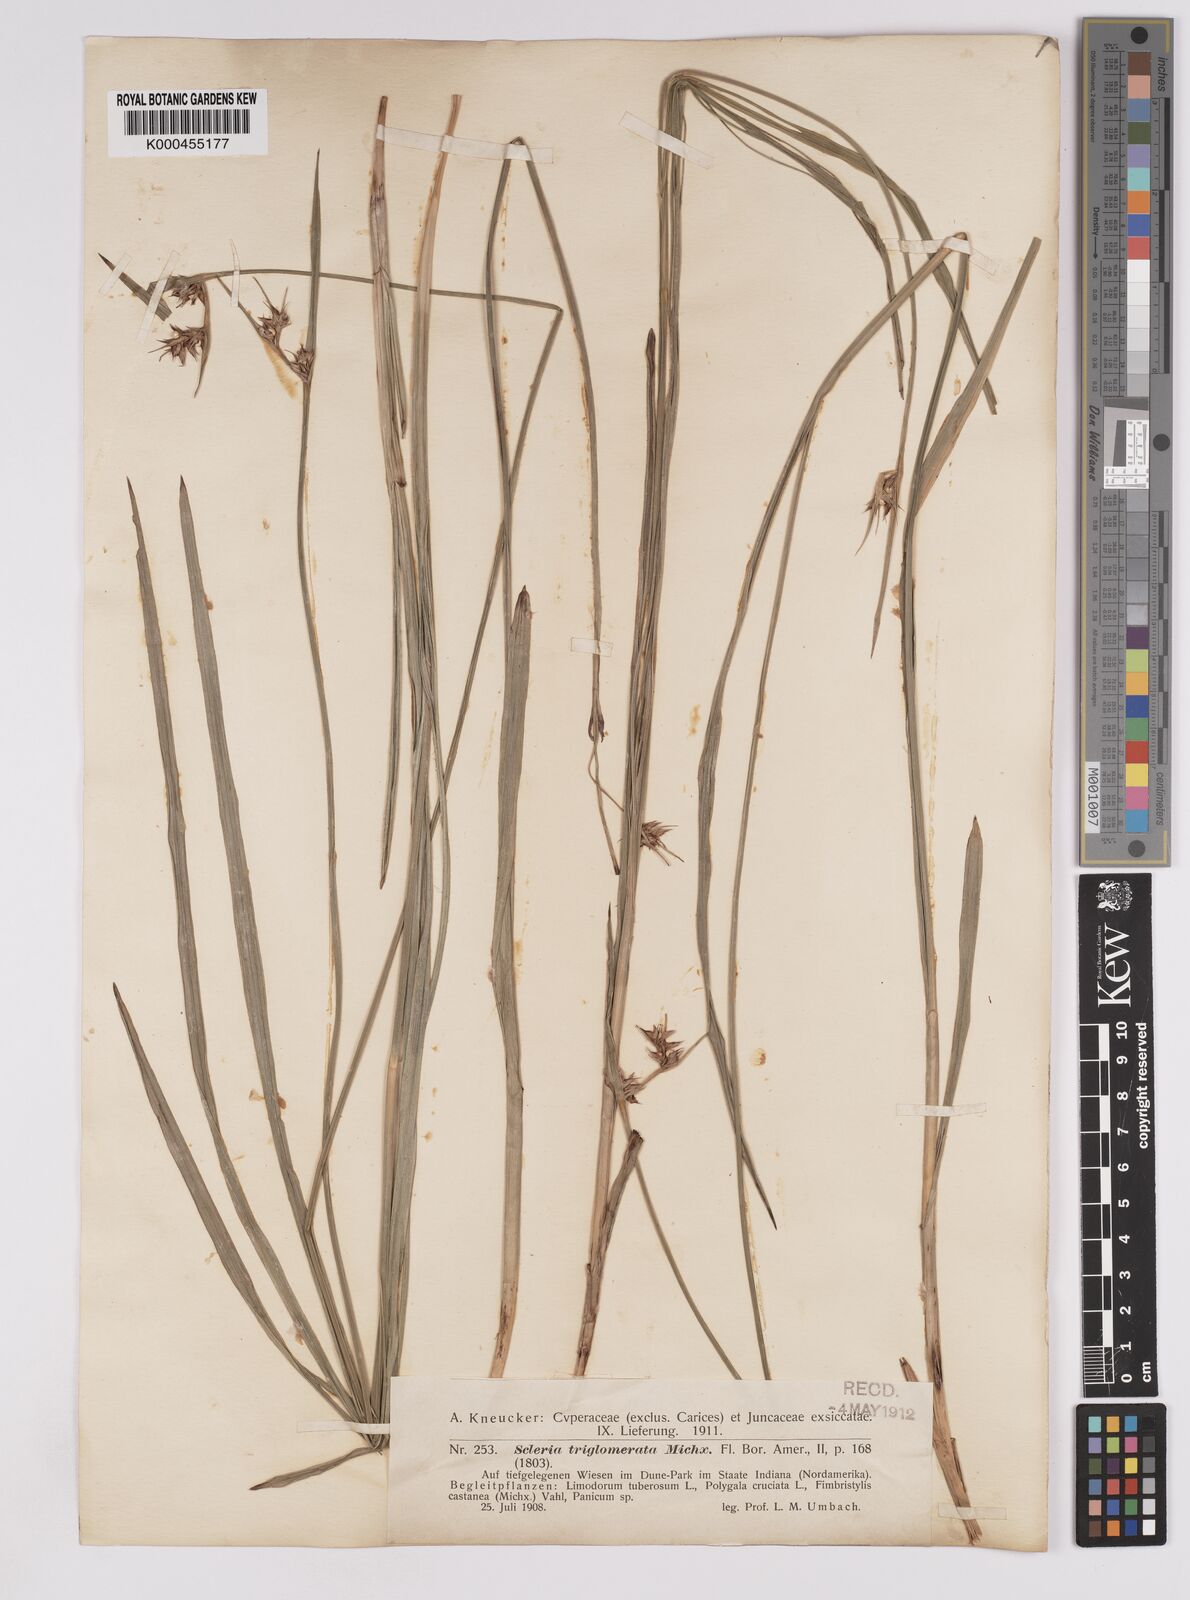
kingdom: Plantae
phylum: Tracheophyta
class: Liliopsida
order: Poales
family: Cyperaceae
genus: Scleria
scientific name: Scleria triglomerata
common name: Whip nutrush
